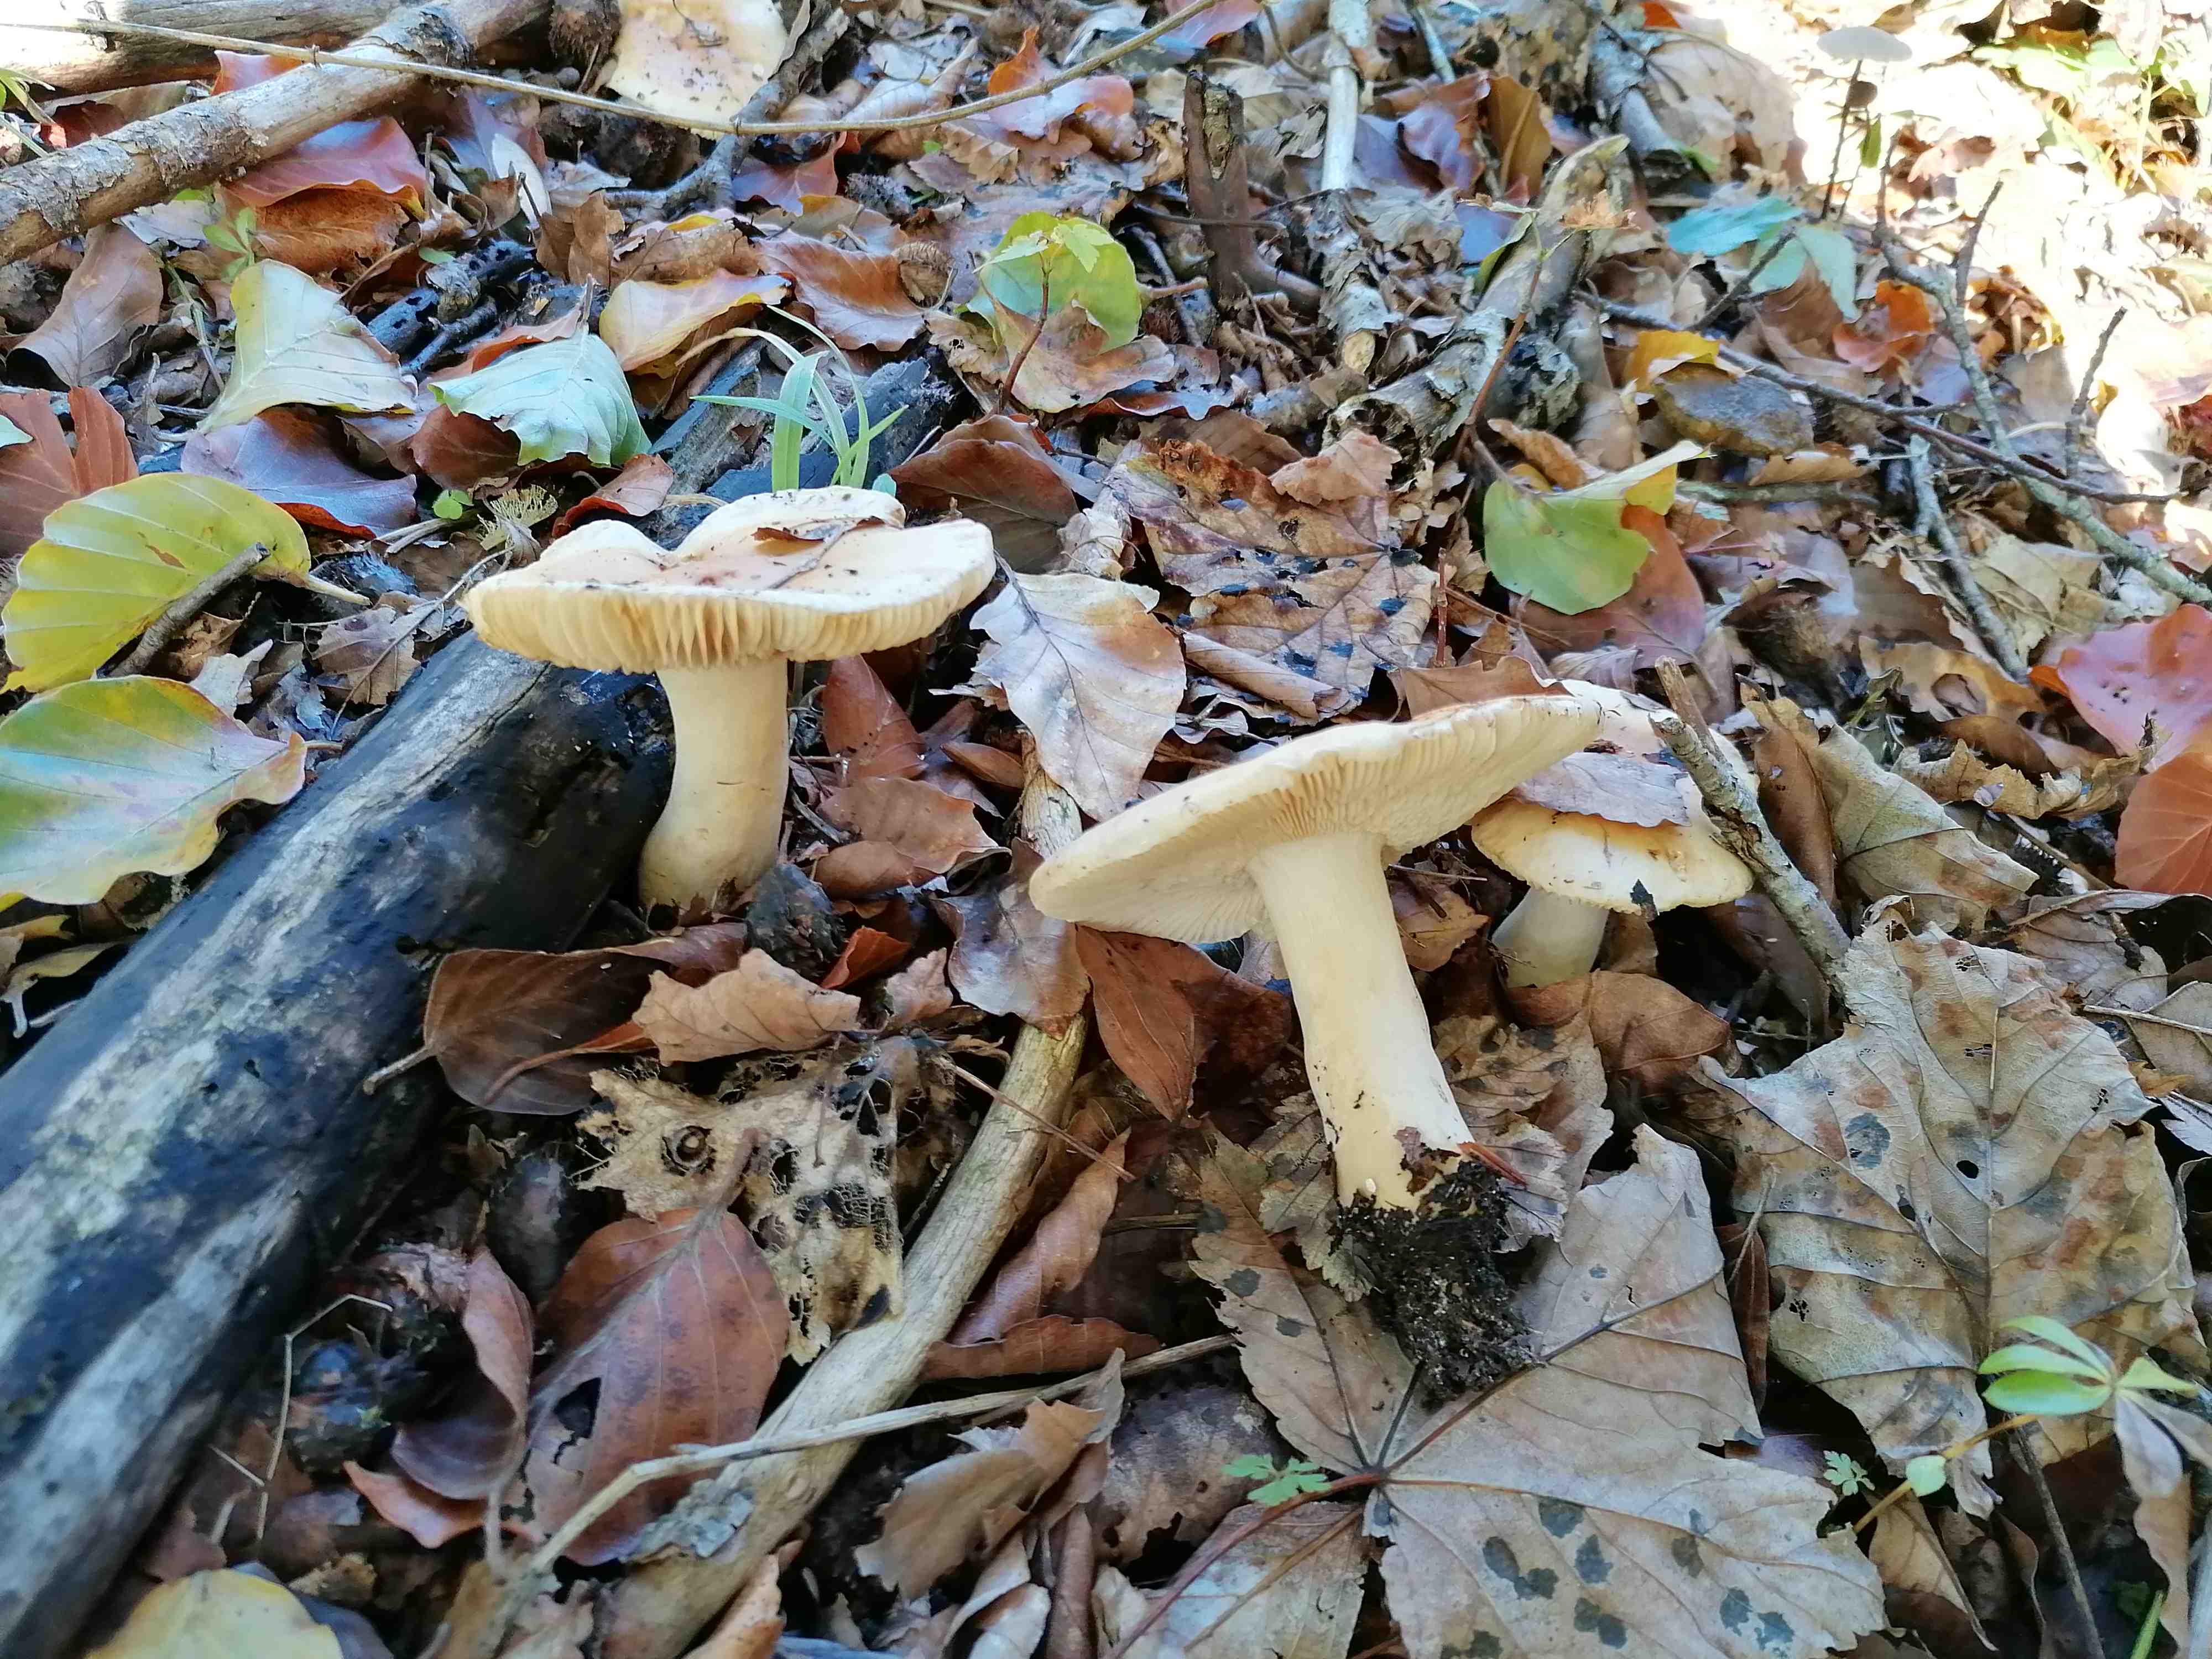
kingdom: Fungi
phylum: Basidiomycota
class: Agaricomycetes
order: Russulales
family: Russulaceae
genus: Russula
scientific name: Russula fellea
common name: galde-skørhat
